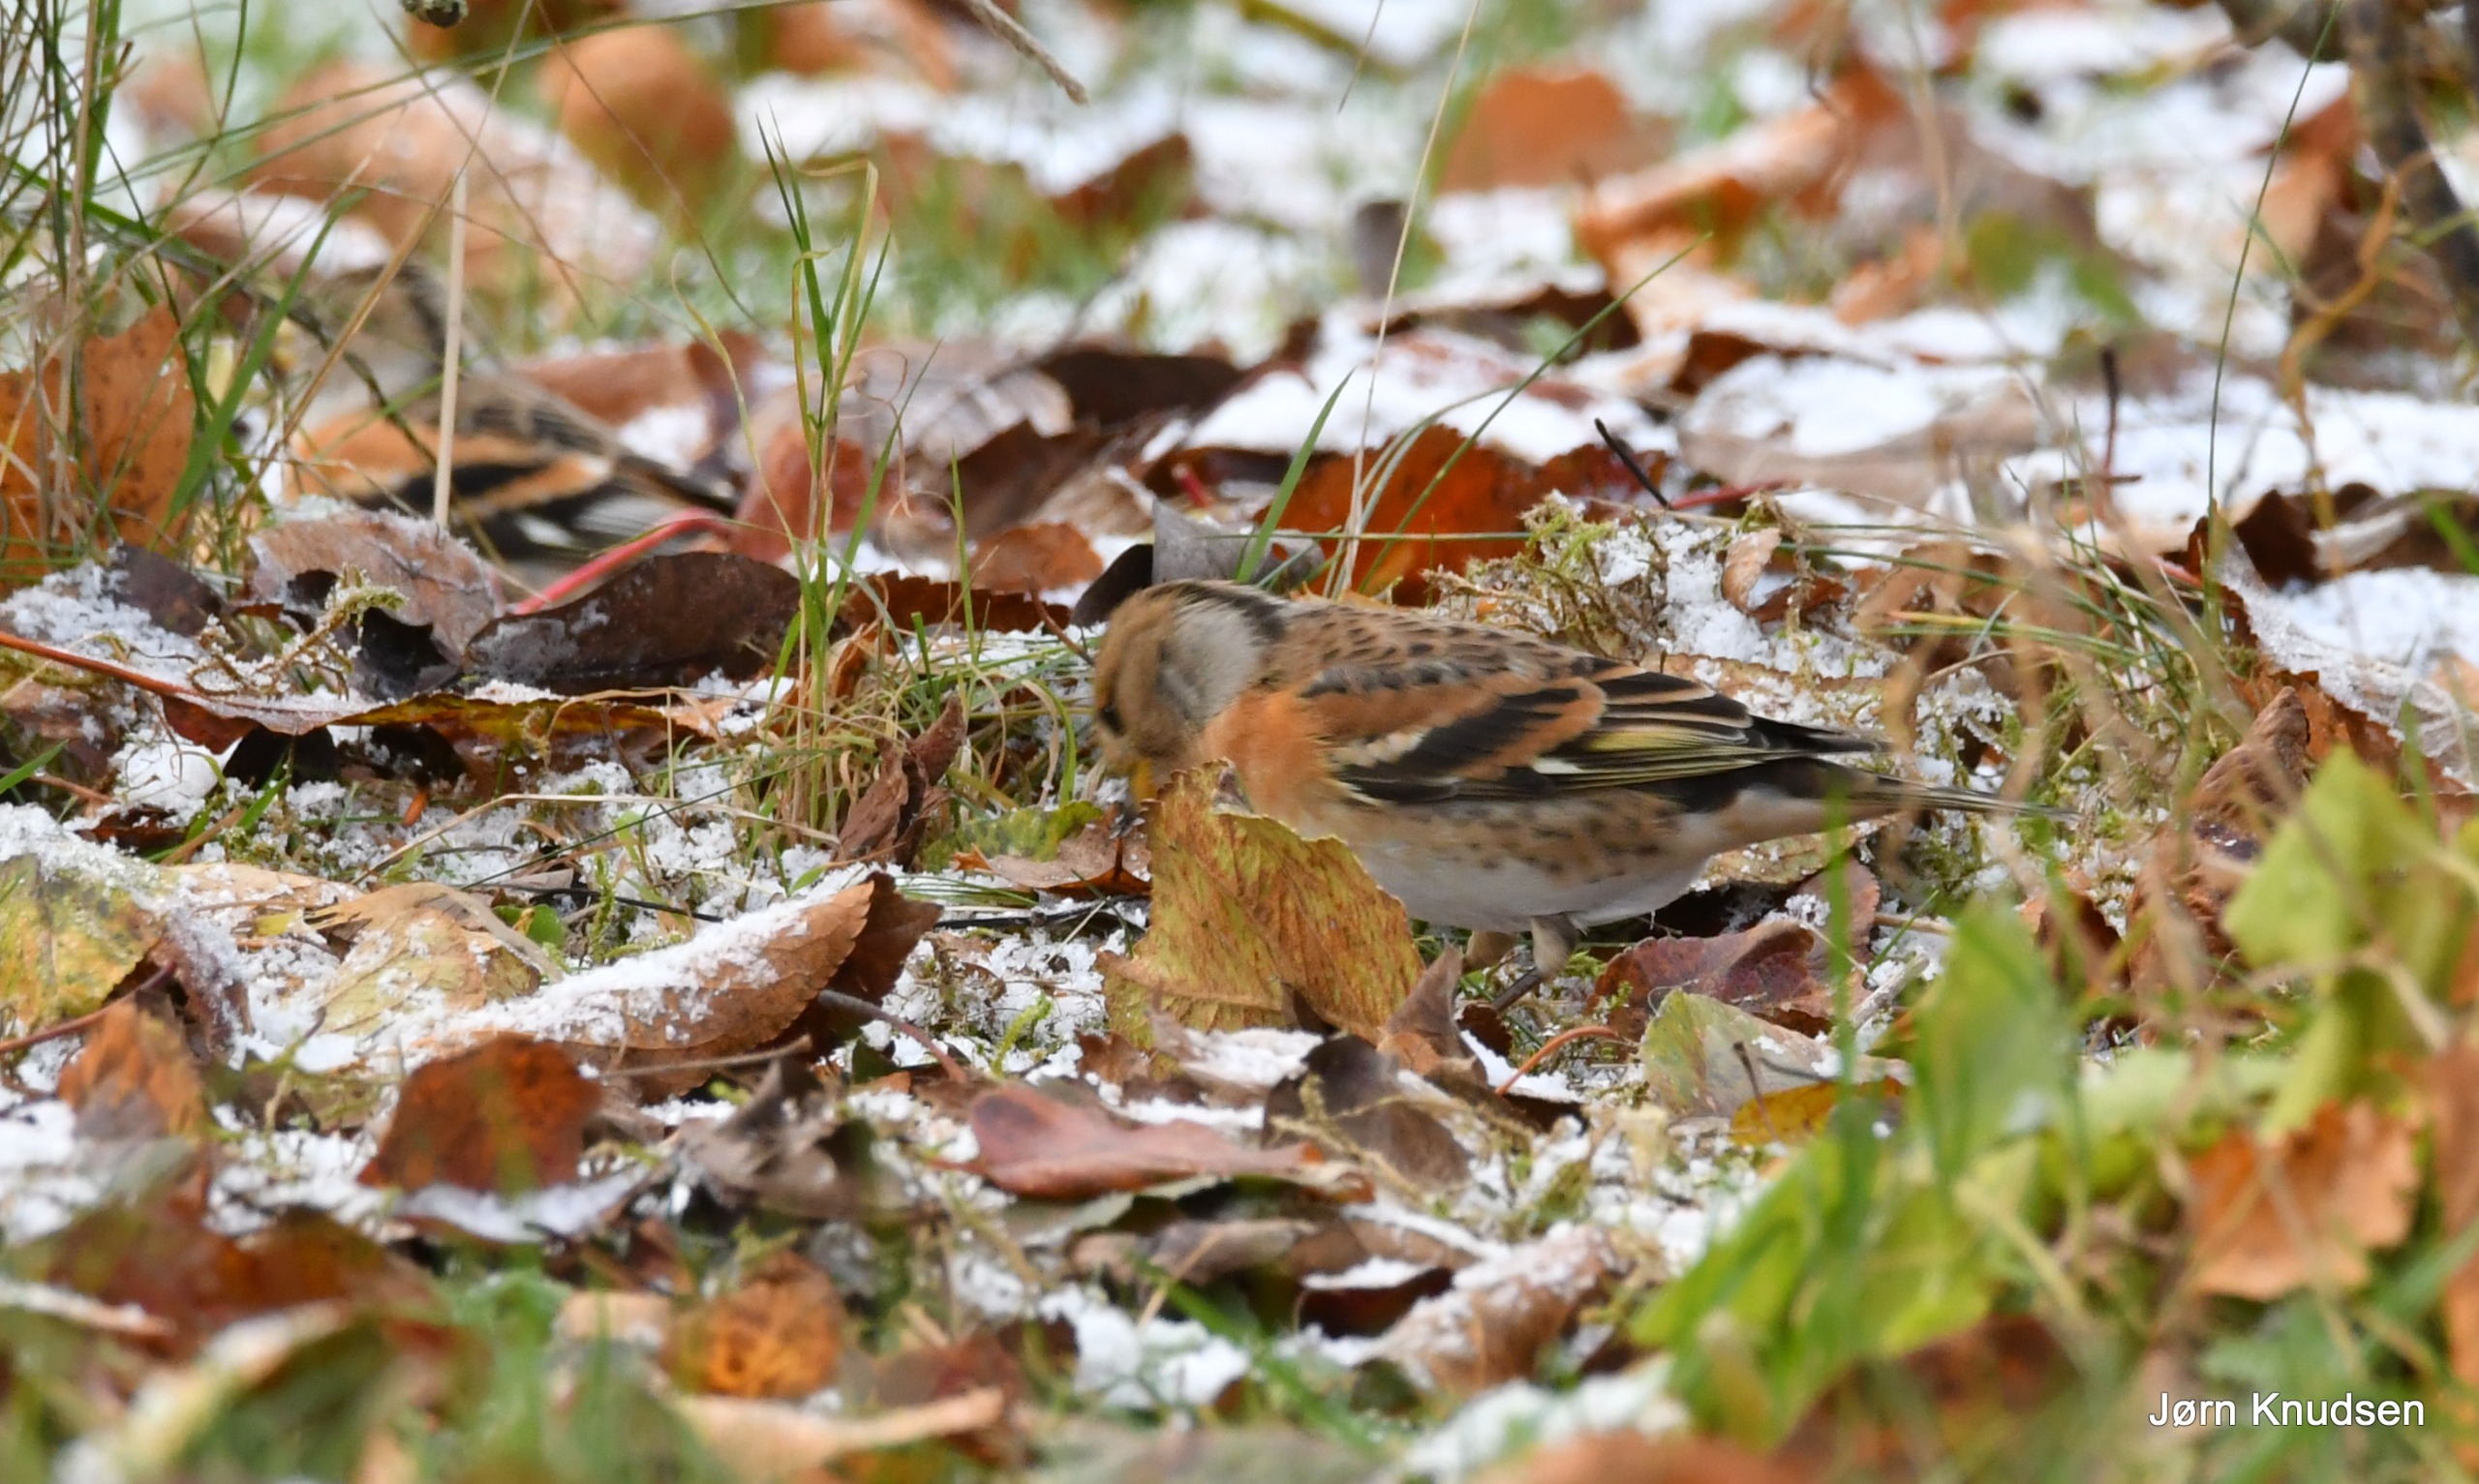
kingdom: Animalia
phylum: Chordata
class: Aves
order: Passeriformes
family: Fringillidae
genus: Fringilla
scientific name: Fringilla montifringilla
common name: Kvækerfinke
